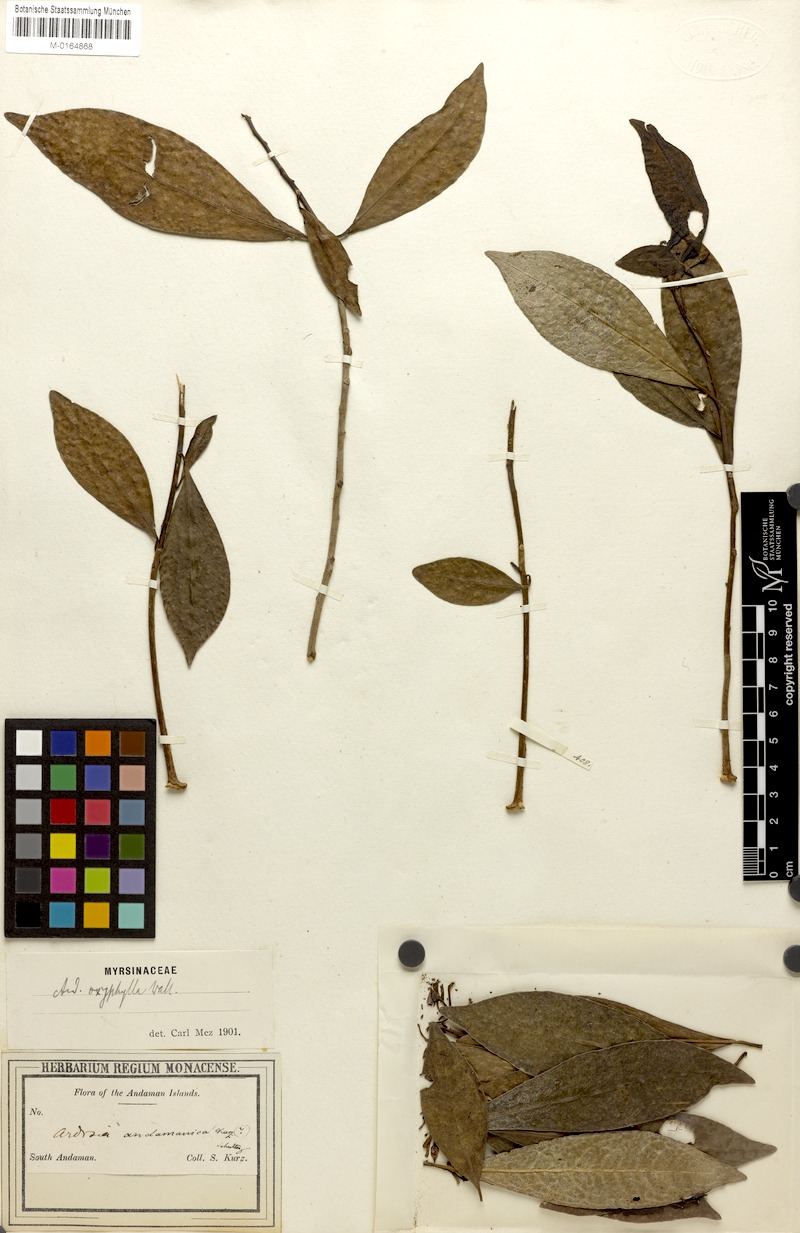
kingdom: Plantae
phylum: Tracheophyta
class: Magnoliopsida
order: Ericales
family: Primulaceae
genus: Ardisia
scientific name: Ardisia andamanica
